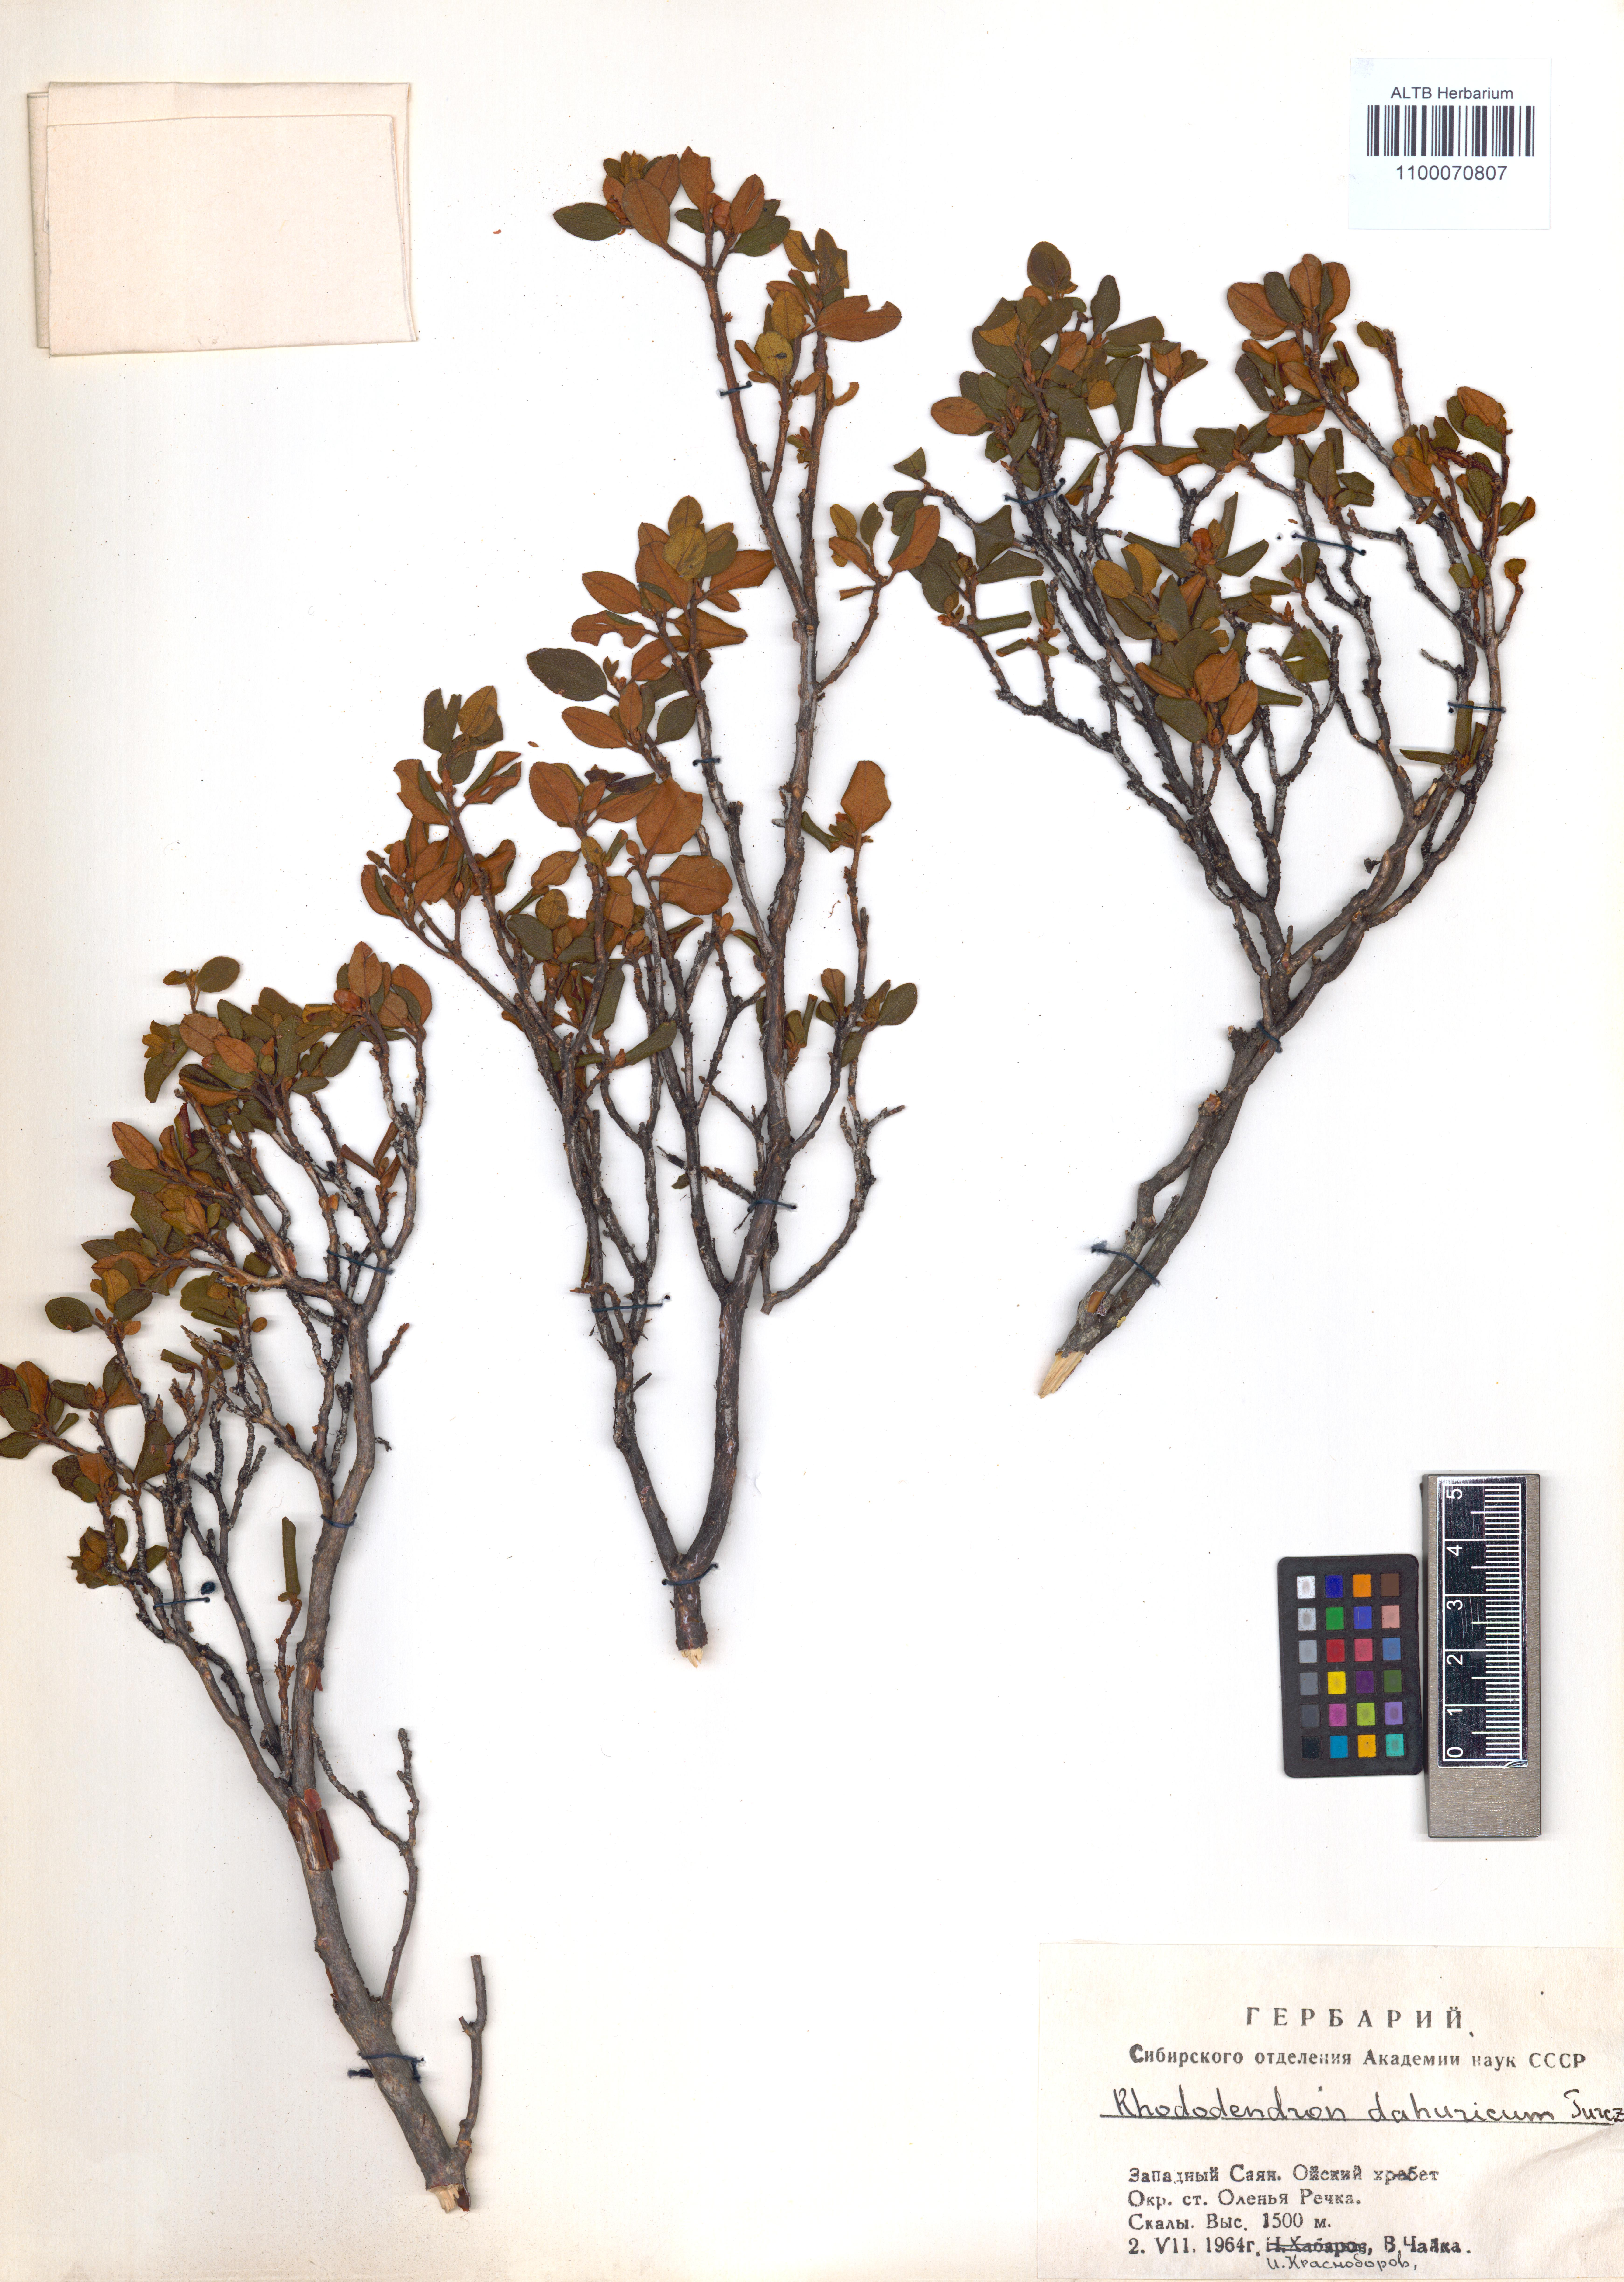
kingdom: Plantae
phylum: Tracheophyta
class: Magnoliopsida
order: Ericales
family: Ericaceae
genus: Rhododendron
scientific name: Rhododendron dauricum
